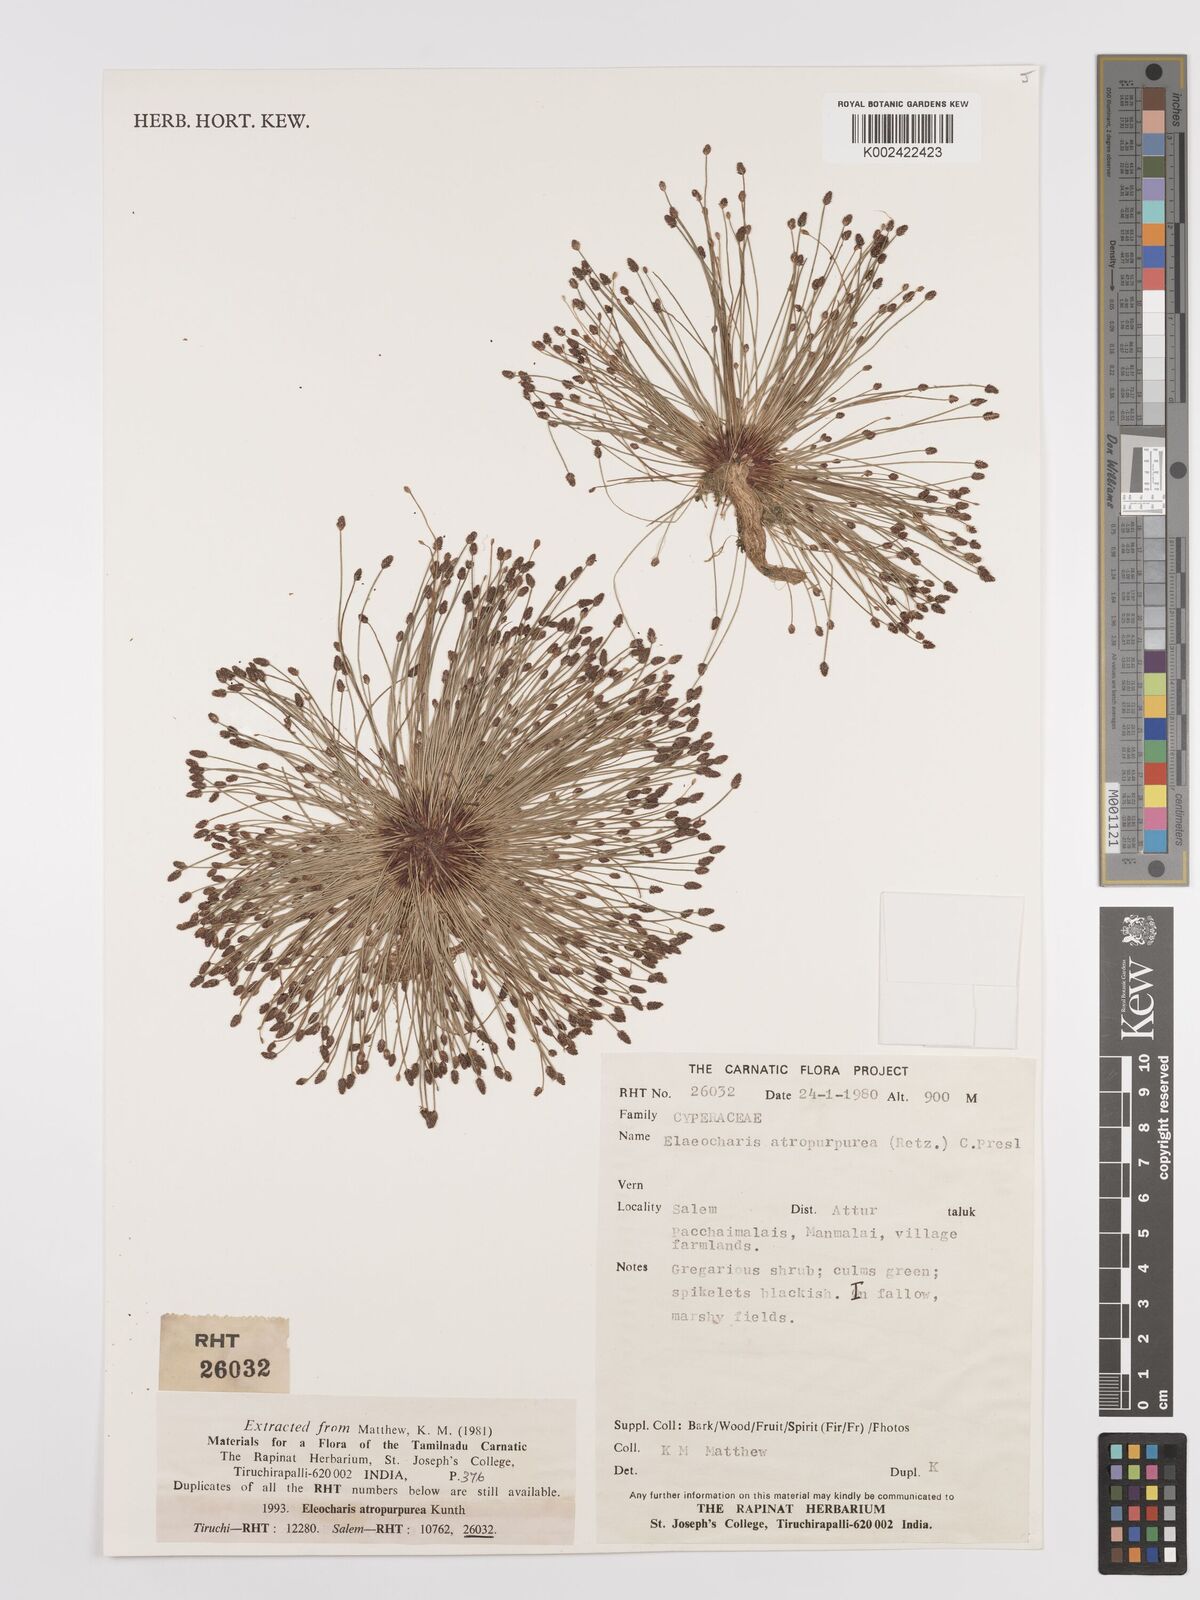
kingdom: Plantae
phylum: Tracheophyta
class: Liliopsida
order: Poales
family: Cyperaceae
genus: Eleocharis
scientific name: Eleocharis atropurpurea
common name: Purple spikerush
